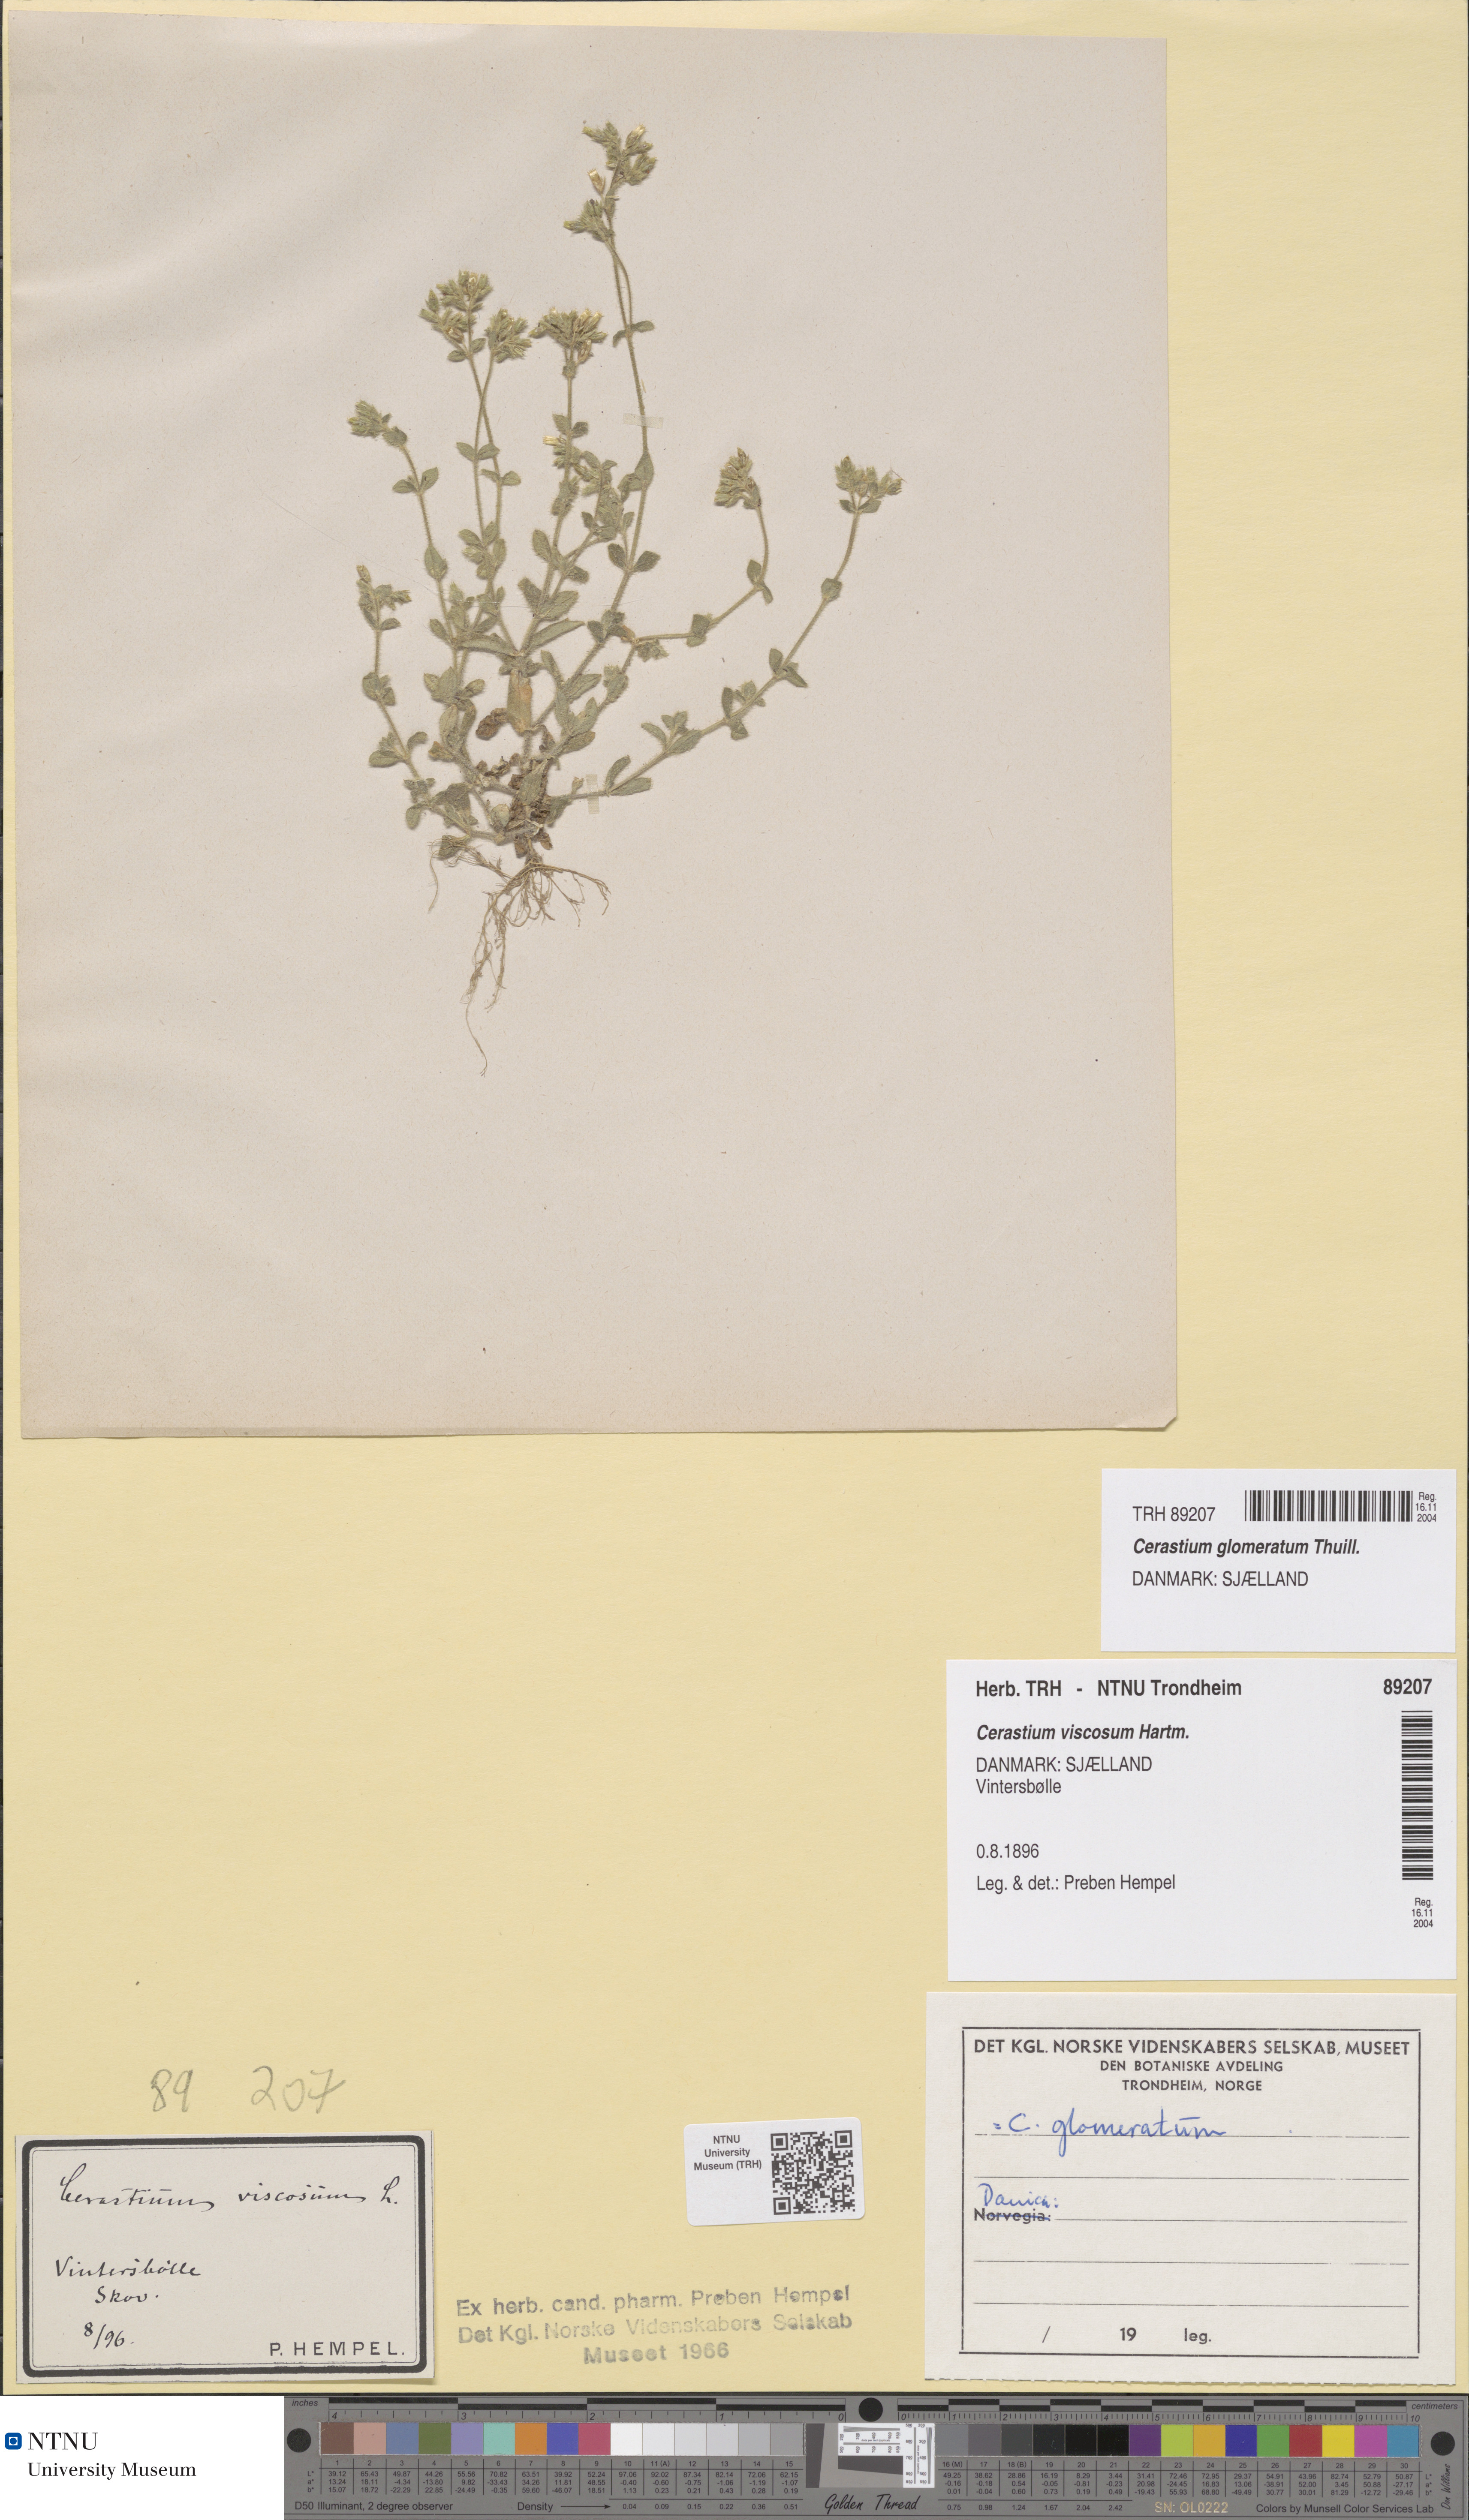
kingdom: Plantae
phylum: Tracheophyta
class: Magnoliopsida
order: Caryophyllales
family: Caryophyllaceae
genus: Cerastium
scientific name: Cerastium glomeratum
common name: Sticky chickweed
